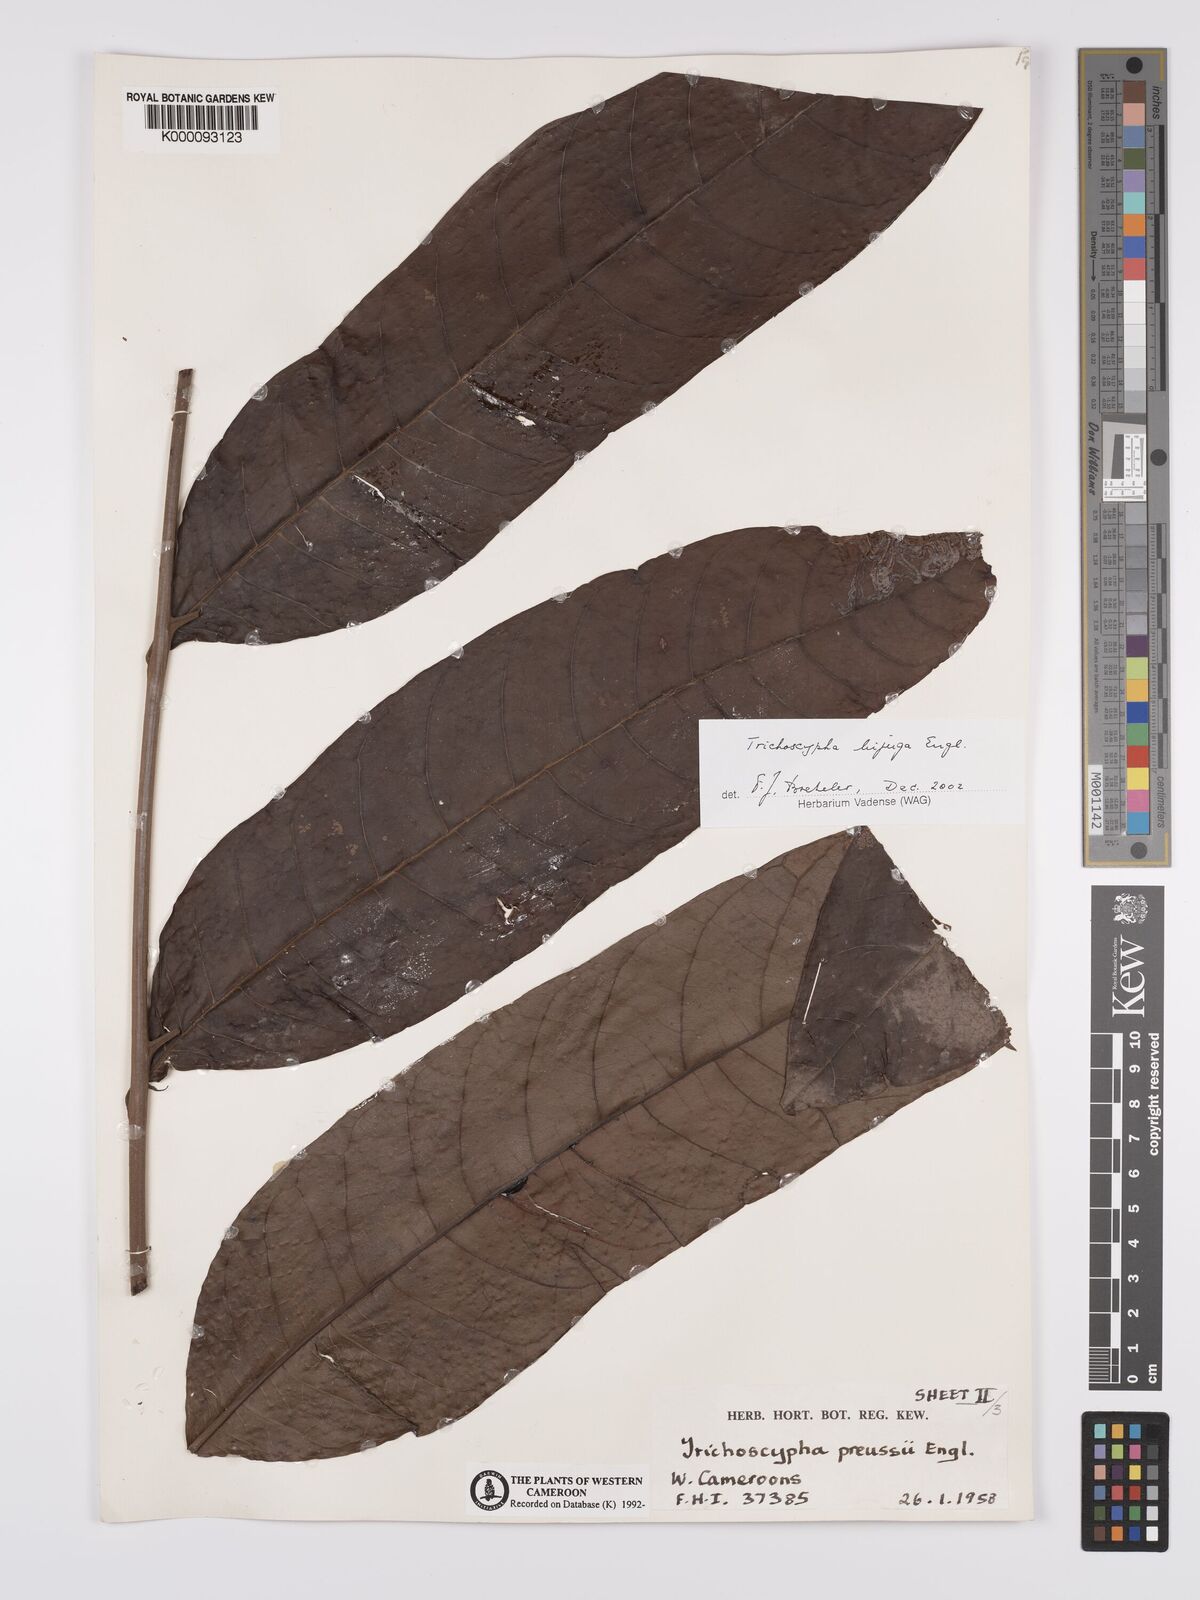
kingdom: Plantae
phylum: Tracheophyta
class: Magnoliopsida
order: Sapindales
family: Anacardiaceae
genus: Trichoscypha
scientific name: Trichoscypha bijuga
